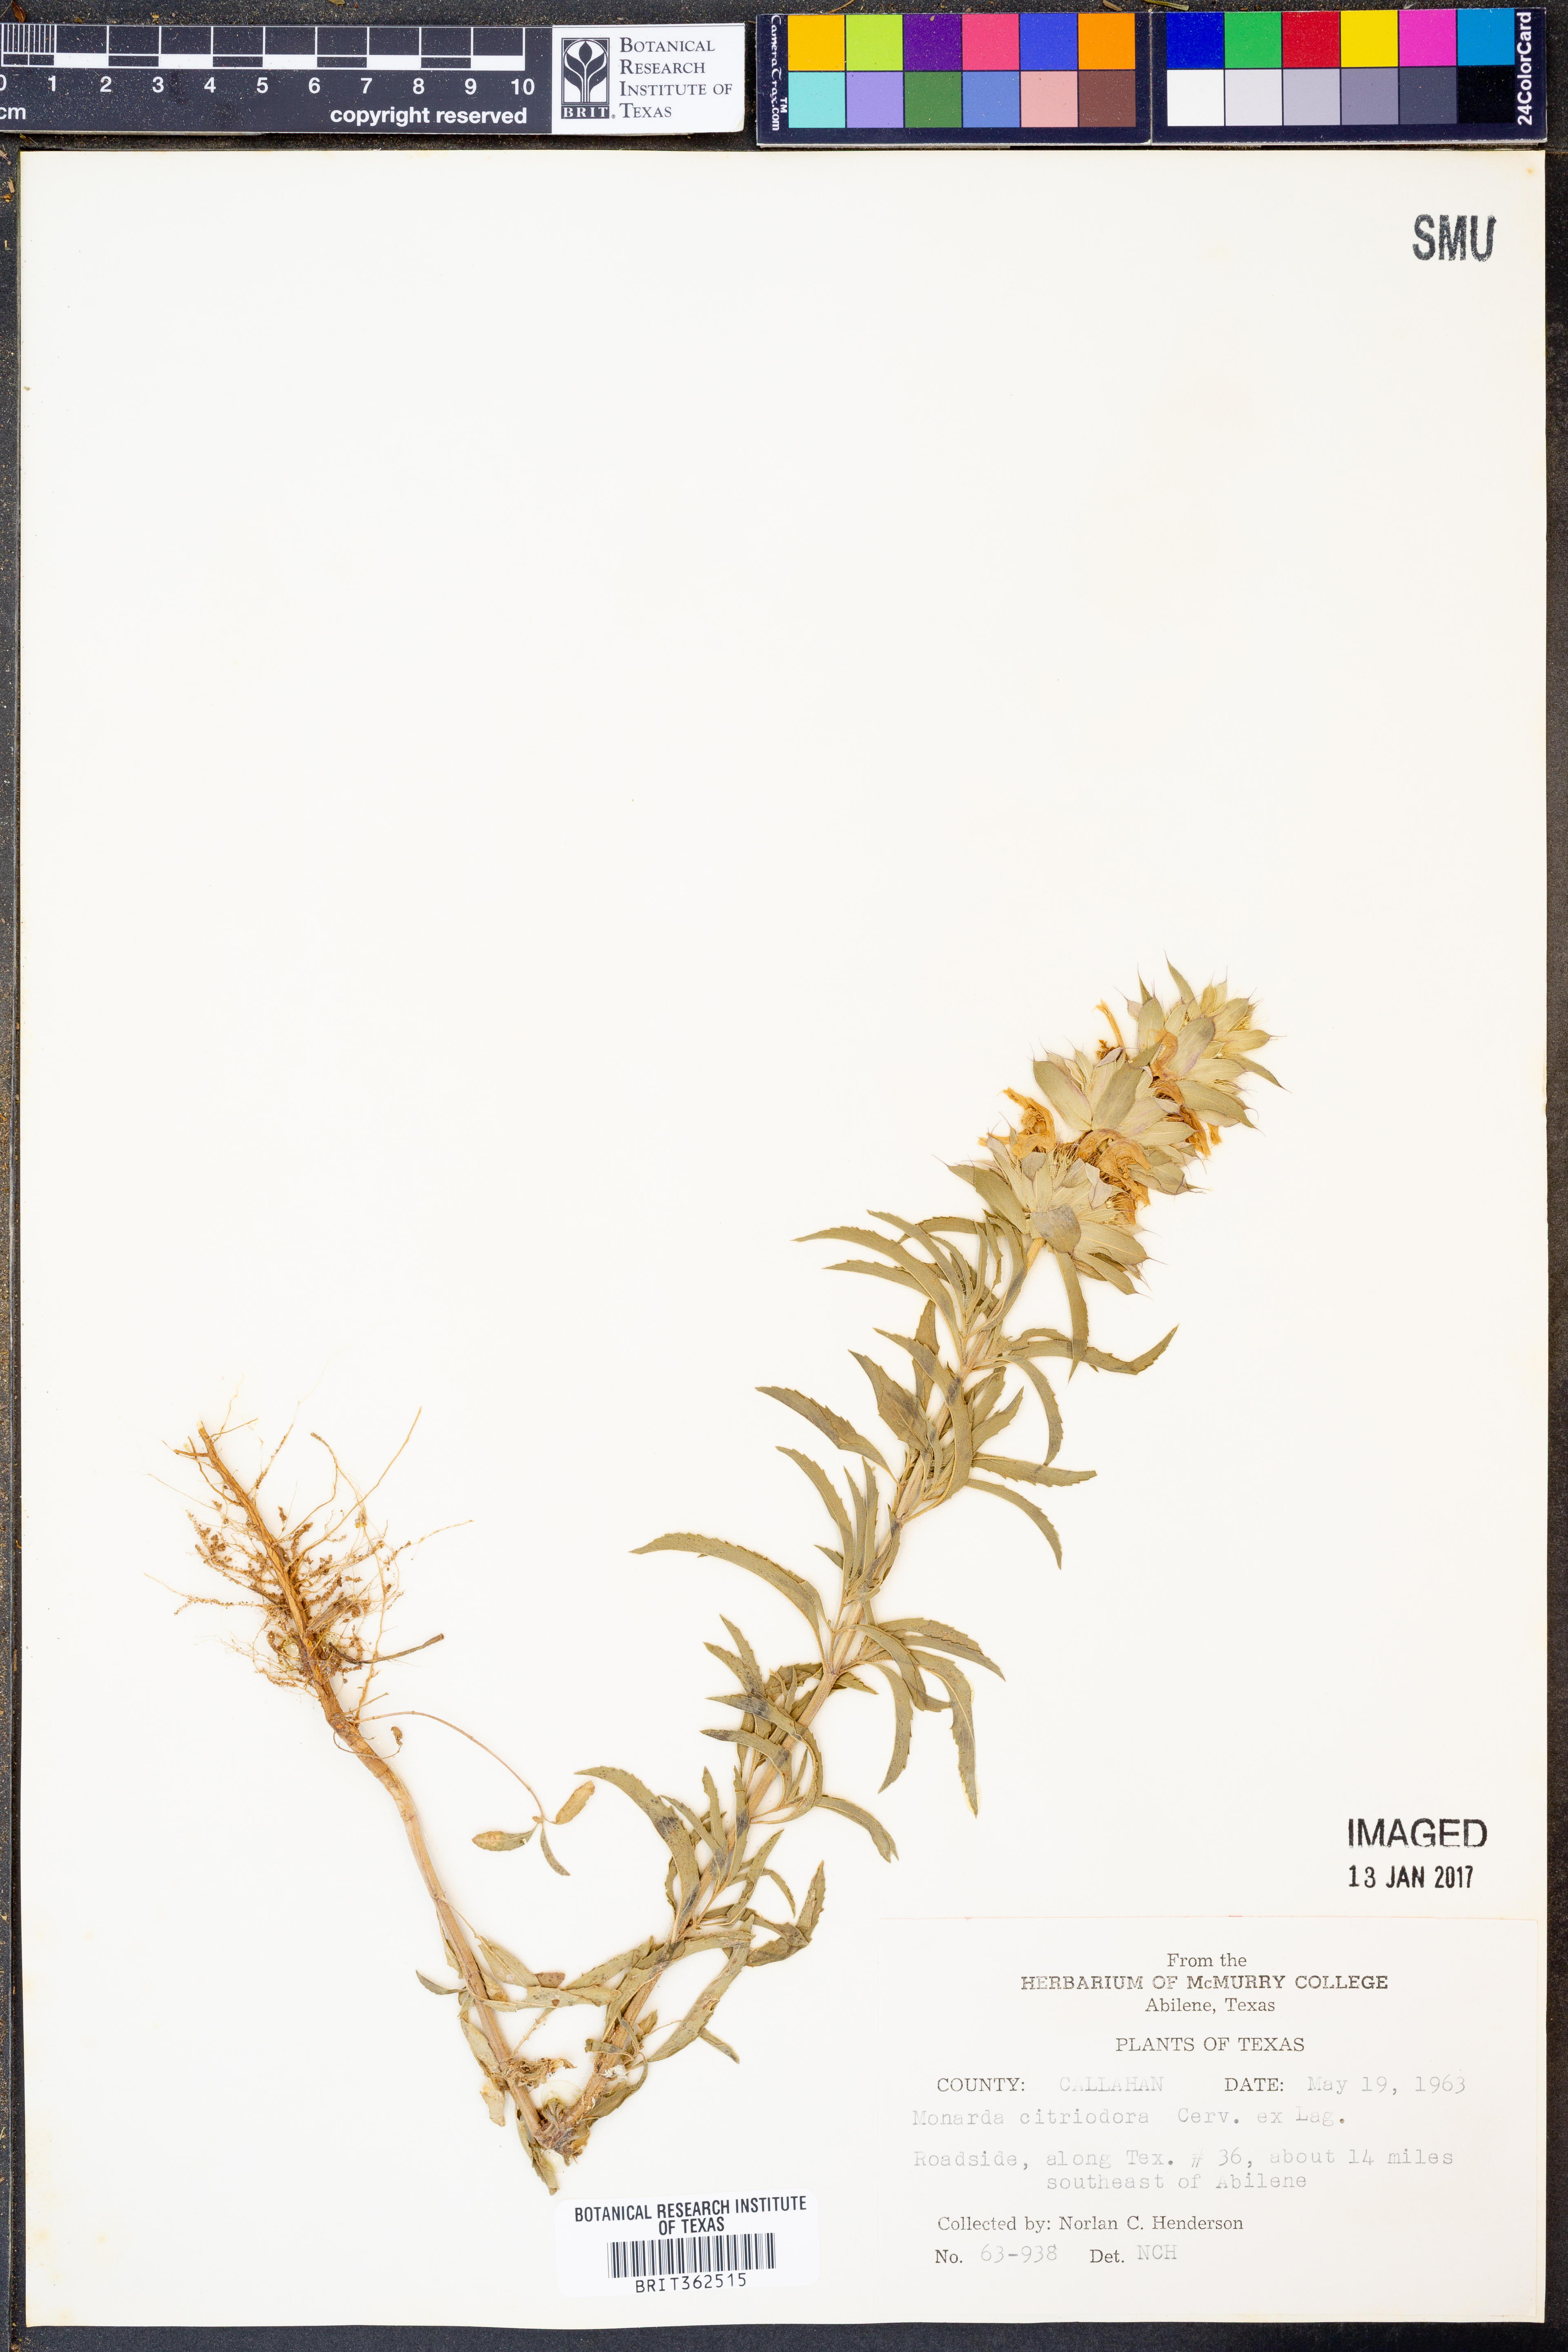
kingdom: Plantae
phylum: Tracheophyta
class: Magnoliopsida
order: Lamiales
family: Lamiaceae
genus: Monarda
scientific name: Monarda citriodora
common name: Lemon beebalm
